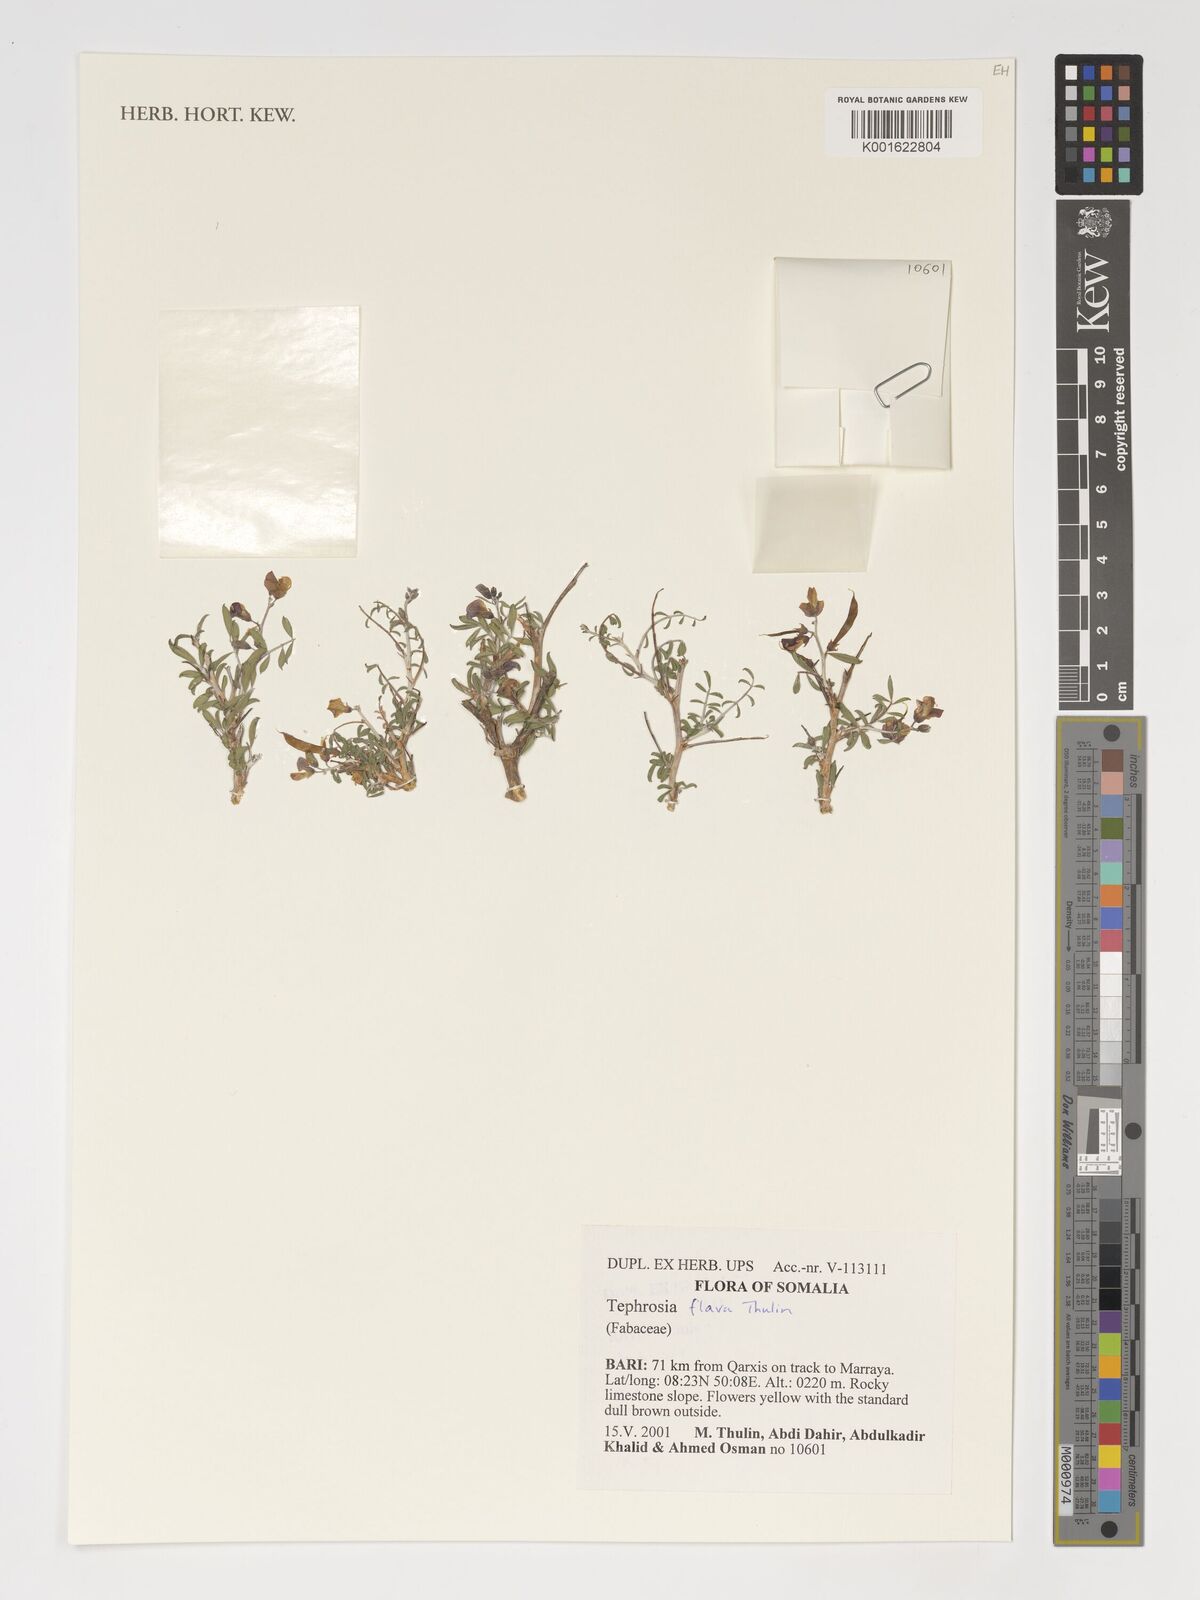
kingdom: Plantae
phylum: Tracheophyta
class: Magnoliopsida
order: Fabales
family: Fabaceae
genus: Tephrosia
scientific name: Tephrosia flava
